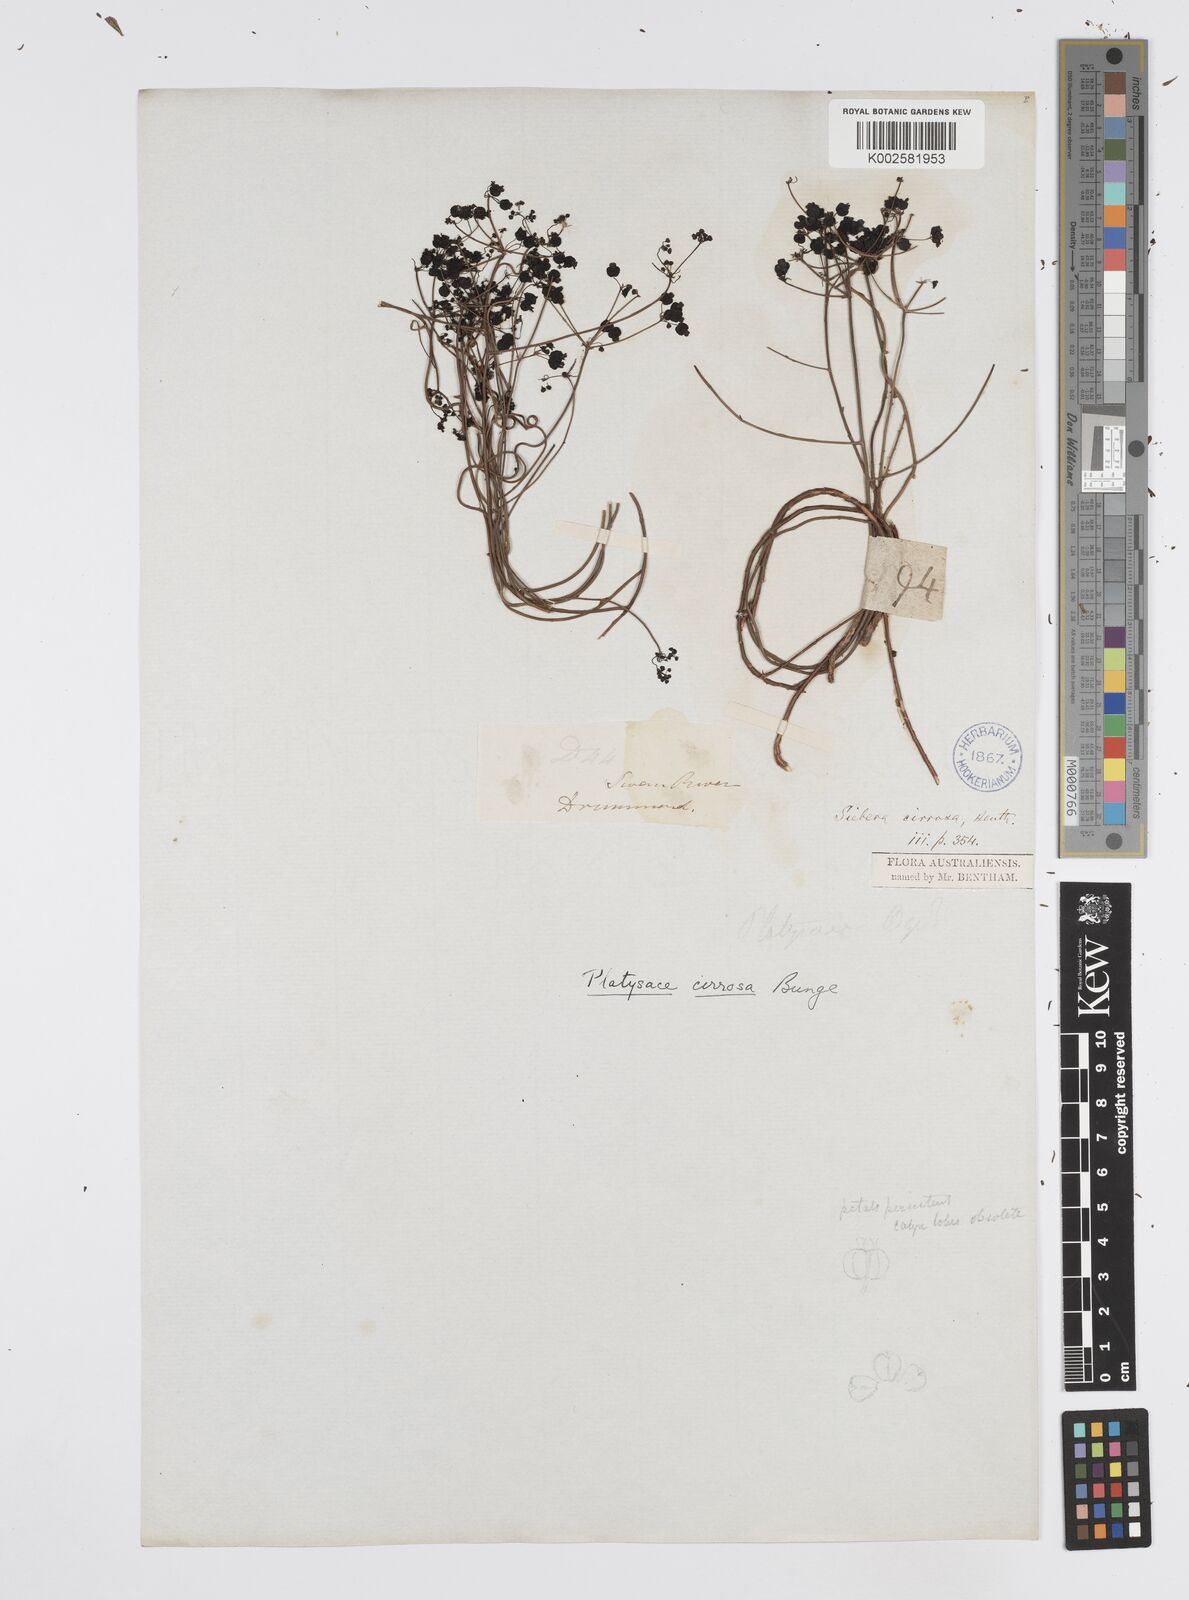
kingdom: Plantae
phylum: Tracheophyta
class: Magnoliopsida
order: Apiales
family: Apiaceae
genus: Platysace
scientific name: Platysace cirrosa
